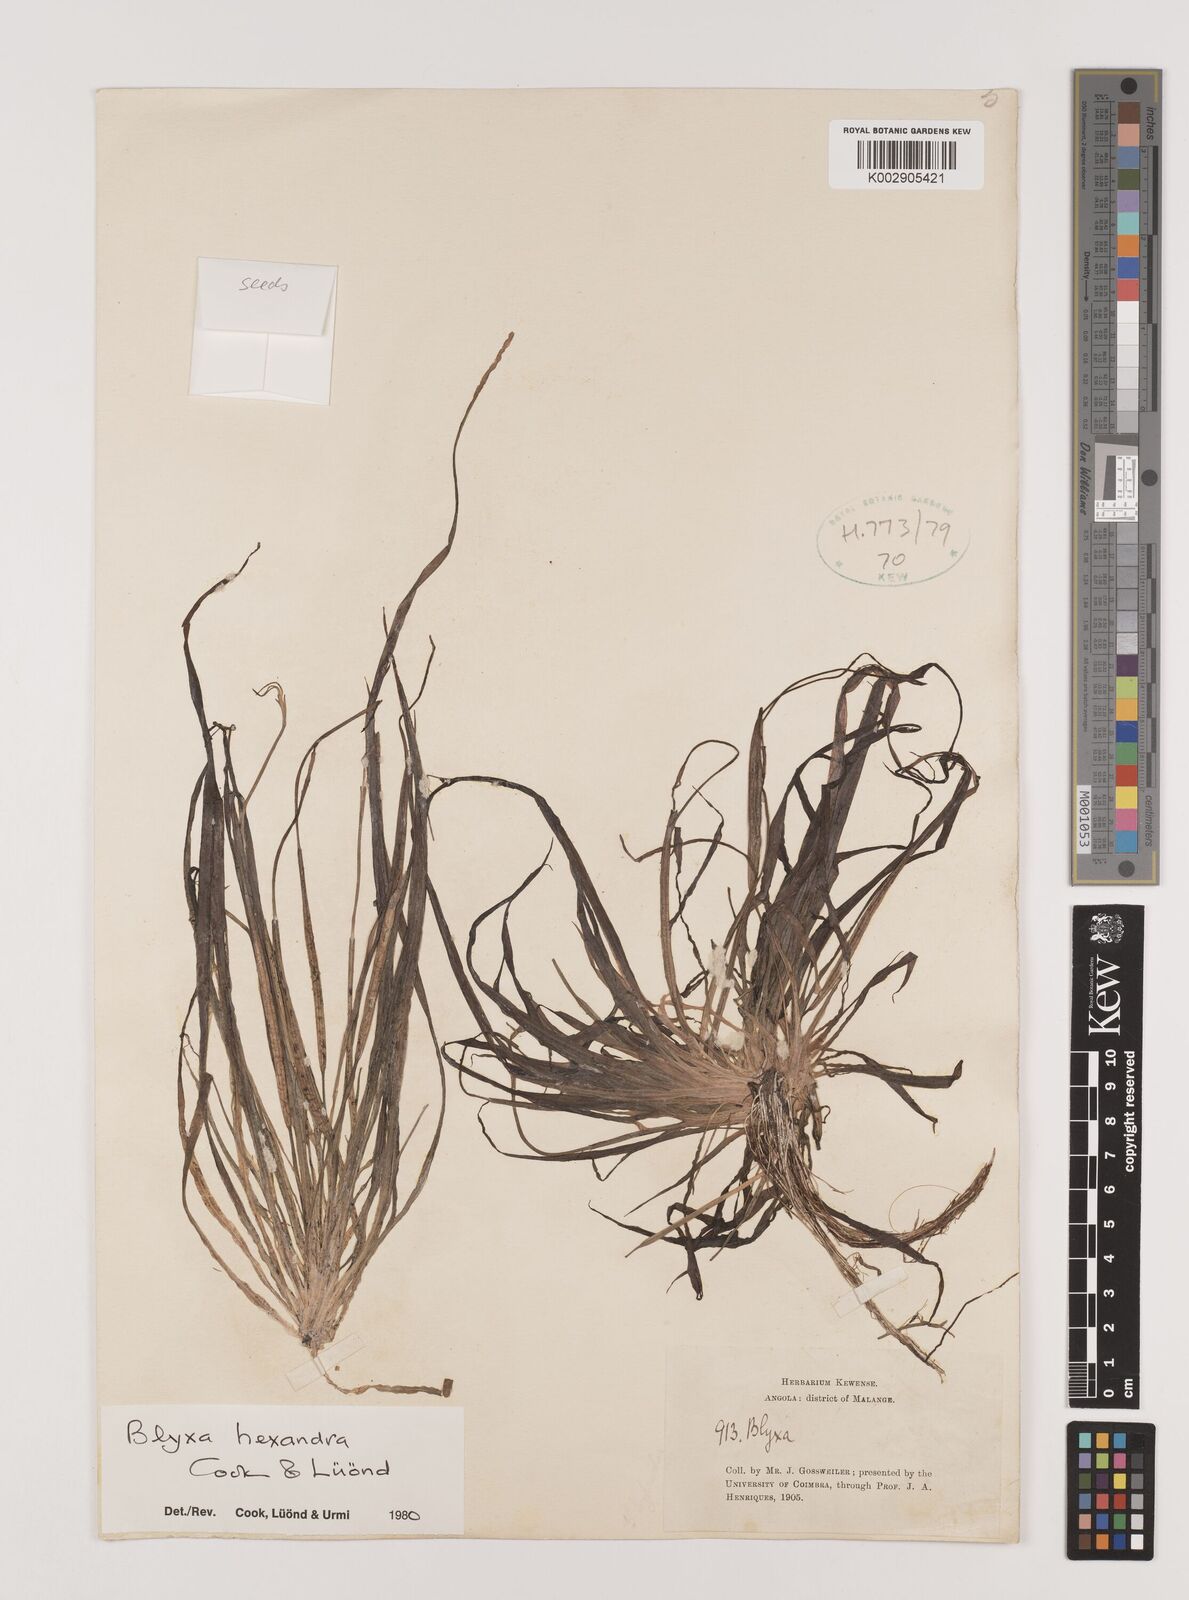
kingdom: Plantae
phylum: Tracheophyta
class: Liliopsida
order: Alismatales
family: Hydrocharitaceae
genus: Blyxa
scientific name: Blyxa hexandra
